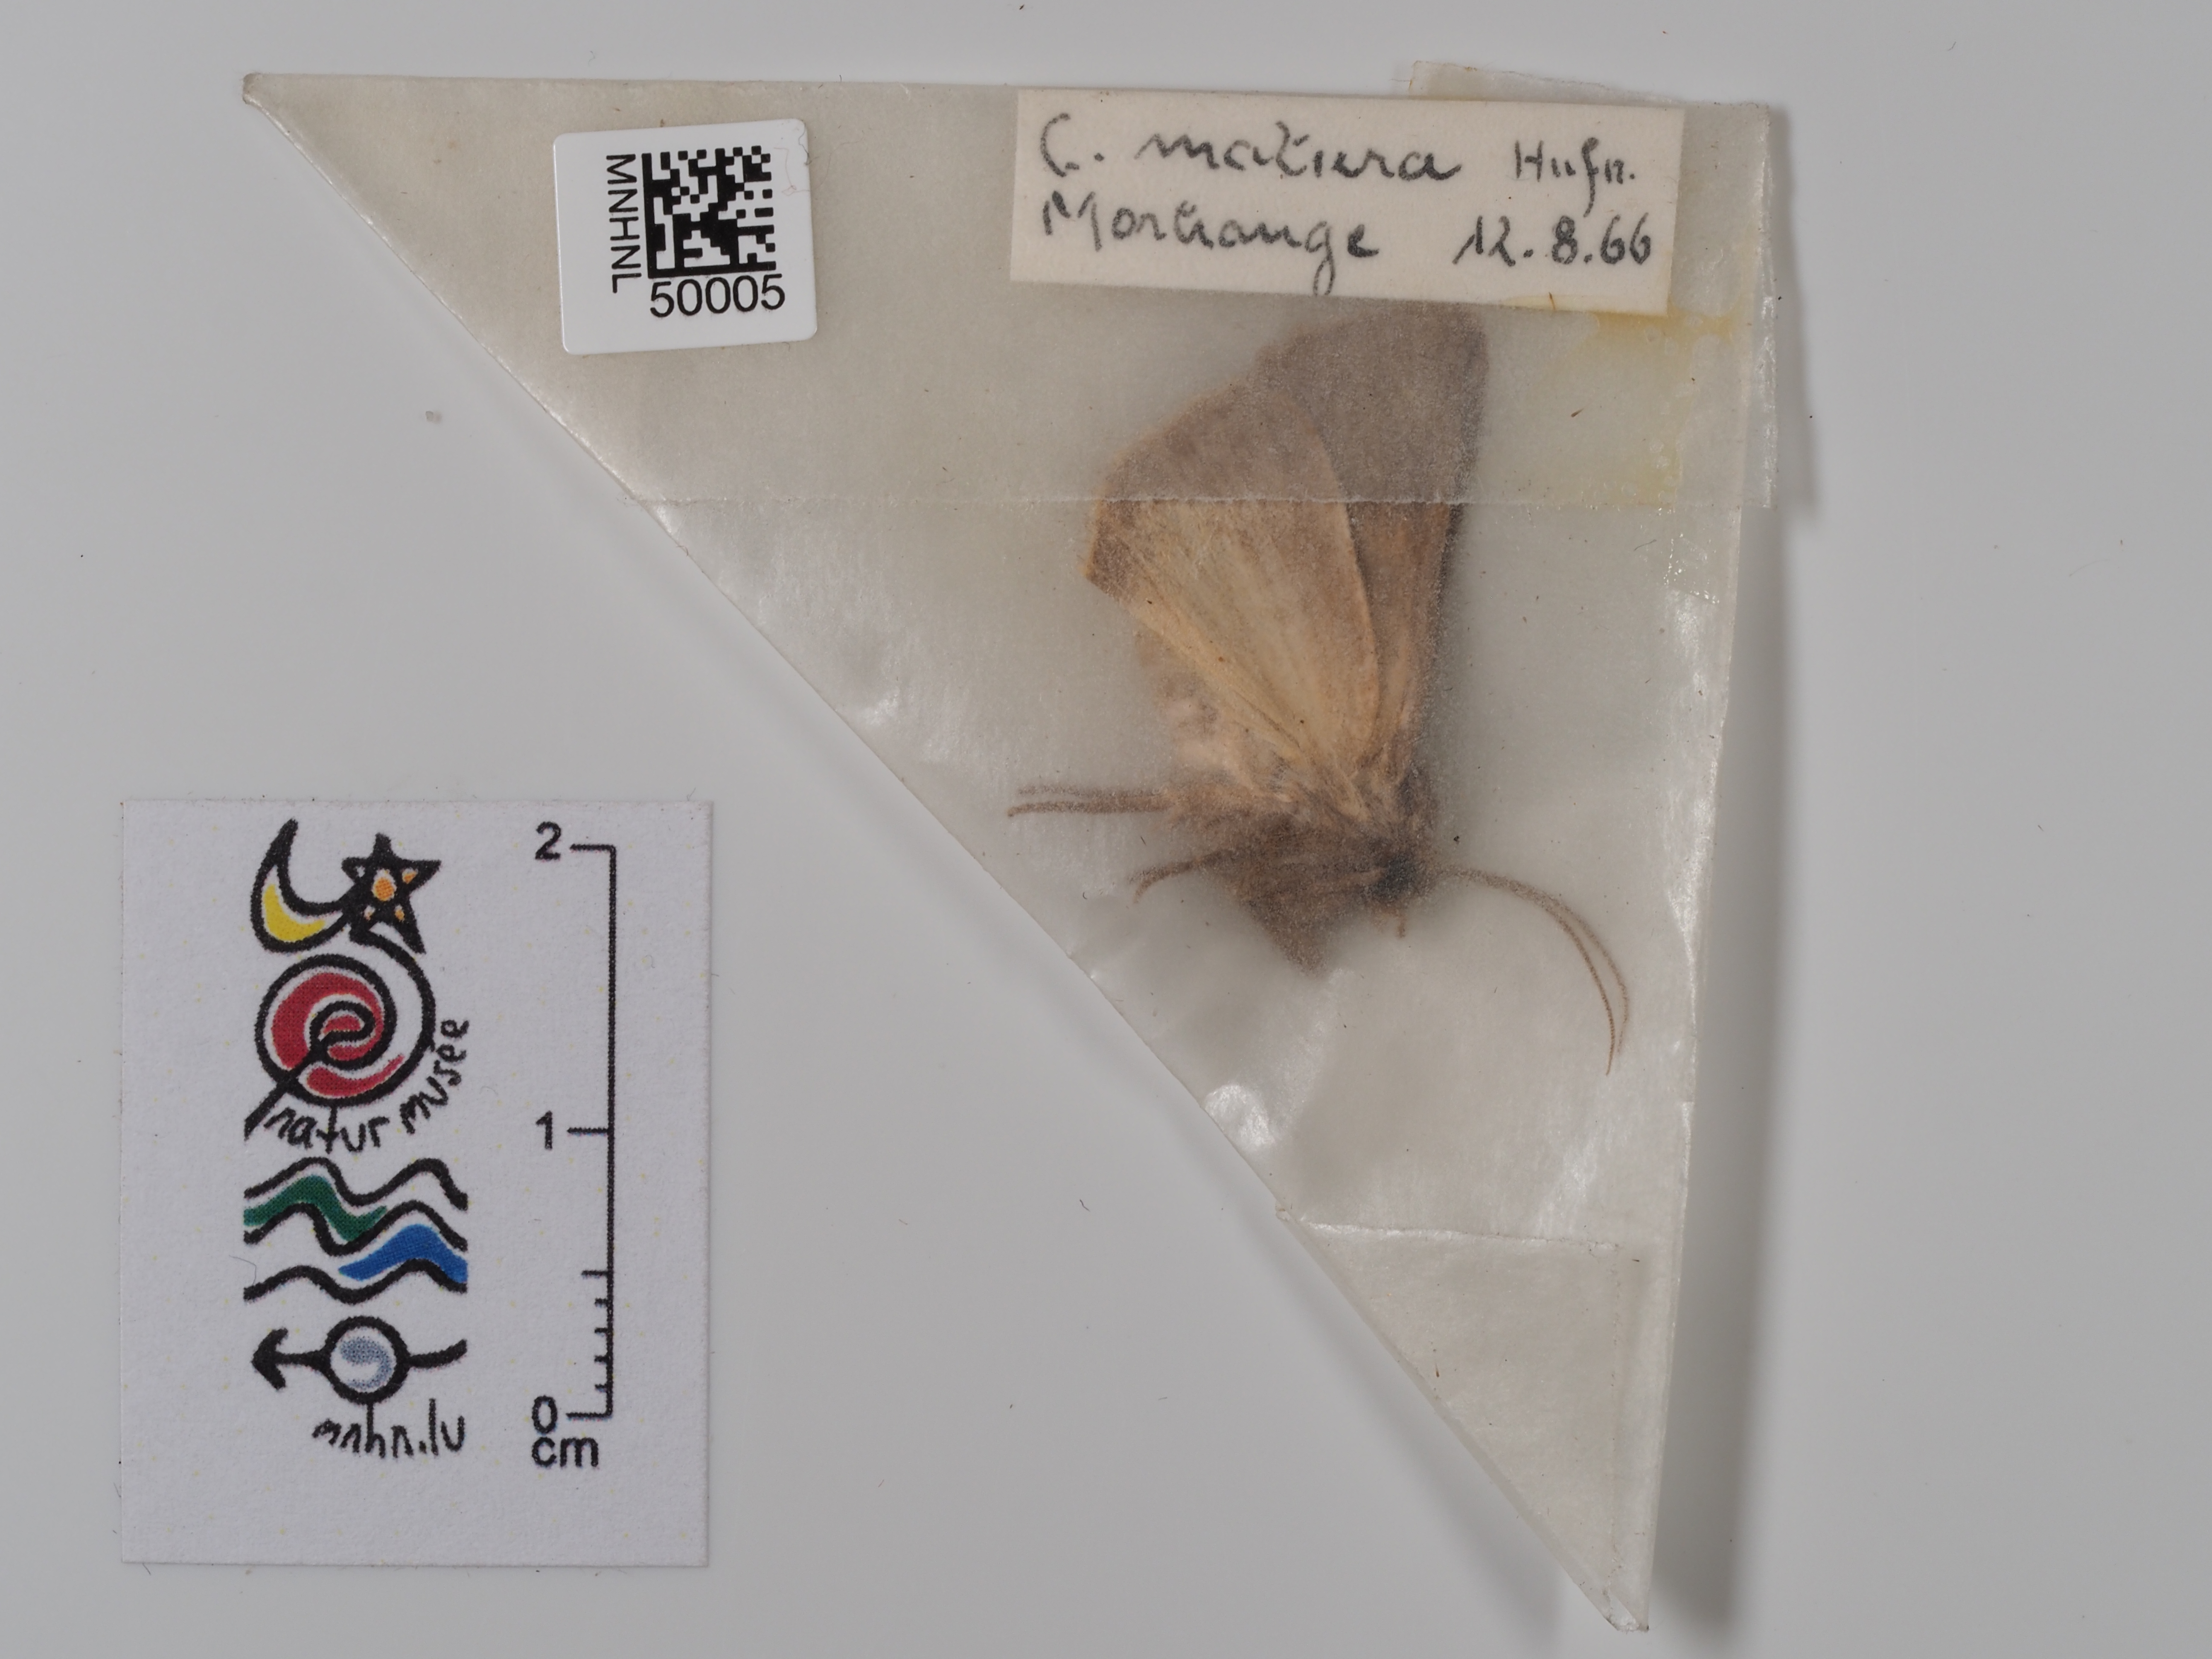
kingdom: Animalia
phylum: Arthropoda
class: Insecta
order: Lepidoptera
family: Noctuidae
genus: Thalpophila
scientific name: Thalpophila matura
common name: Straw underwing
